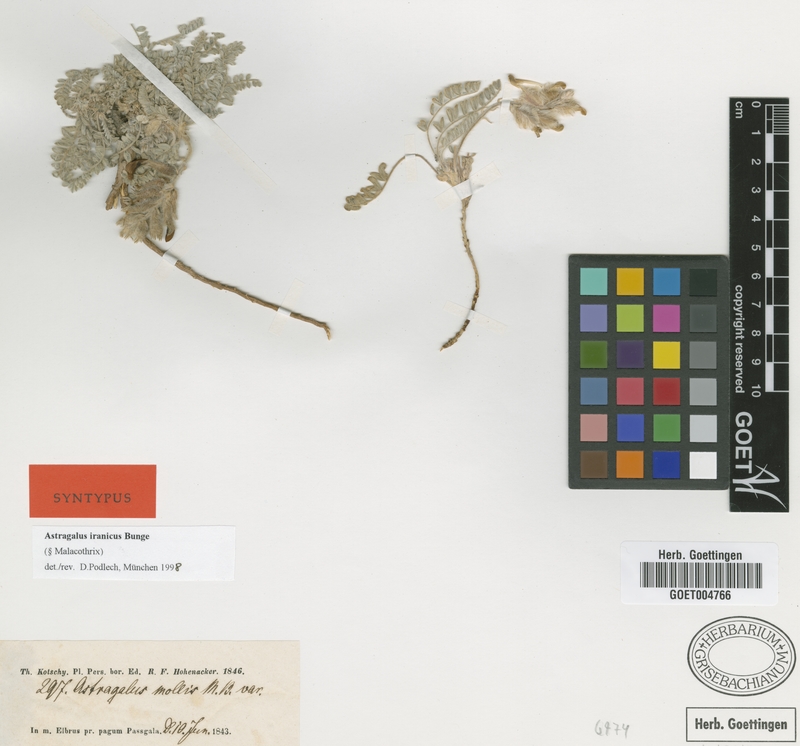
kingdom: Plantae
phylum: Tracheophyta
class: Magnoliopsida
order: Fabales
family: Fabaceae
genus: Astragalus
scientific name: Astragalus iranicus
